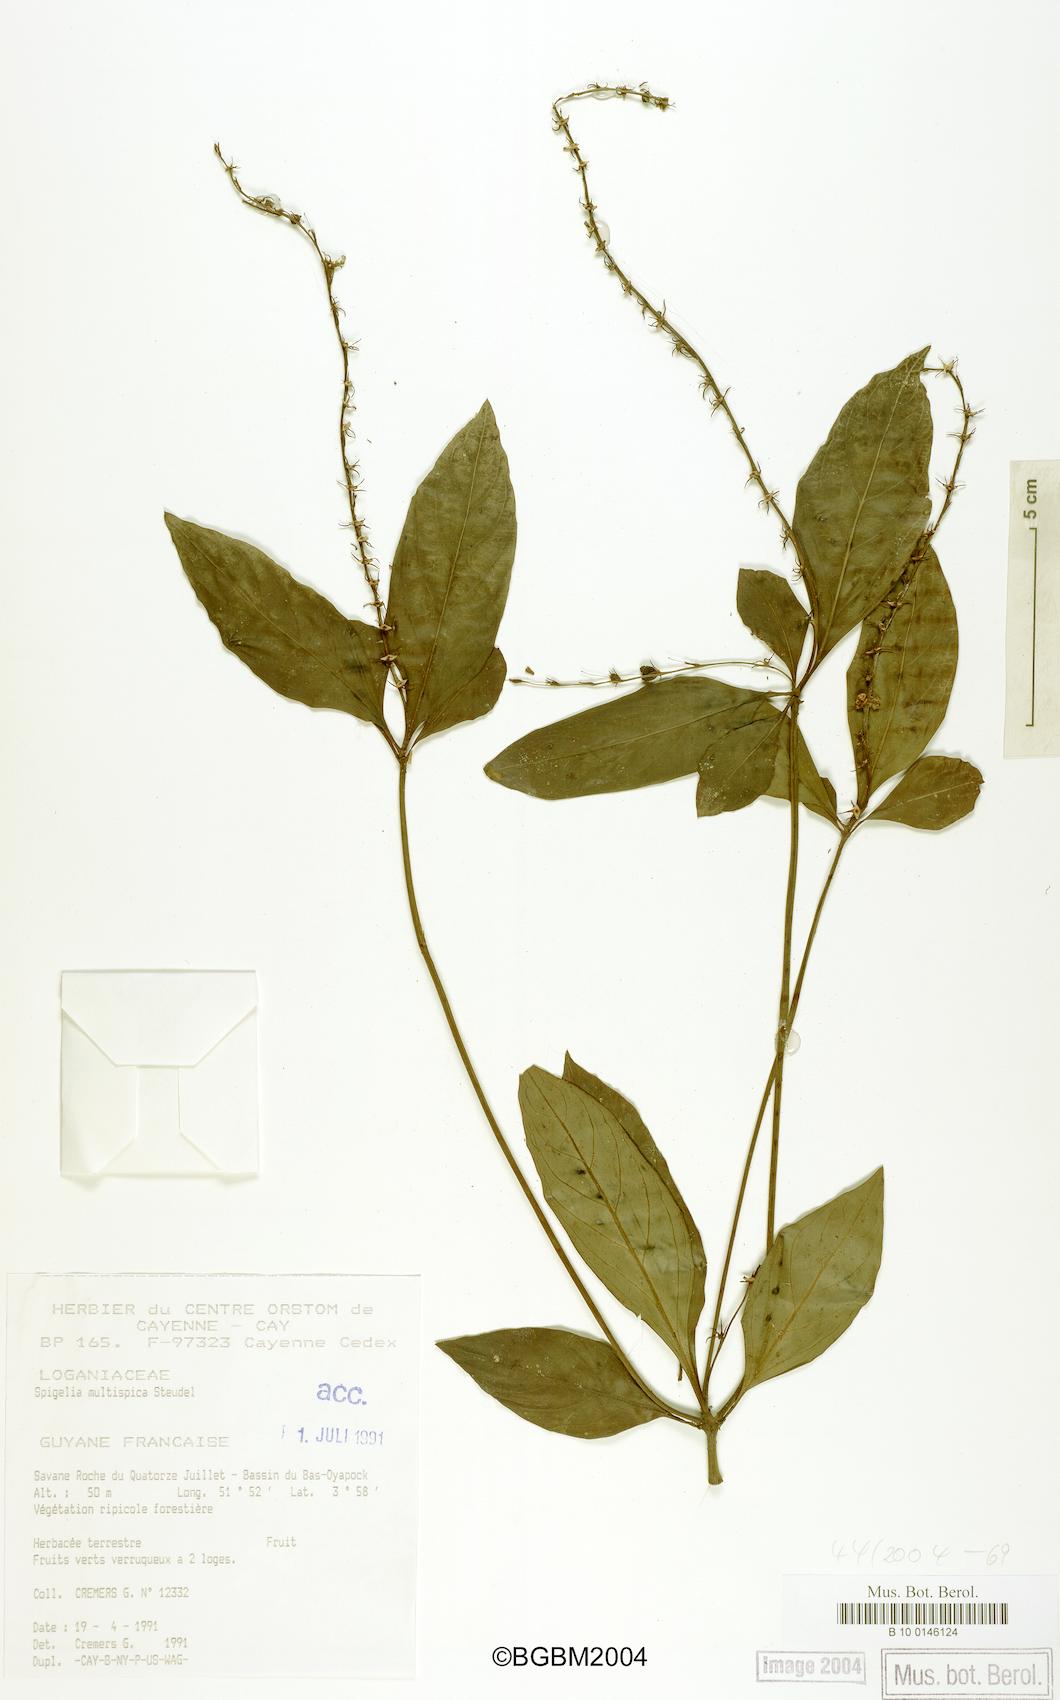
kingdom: Plantae
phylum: Tracheophyta
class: Magnoliopsida
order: Gentianales
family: Loganiaceae
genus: Spigelia
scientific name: Spigelia hamellioides
